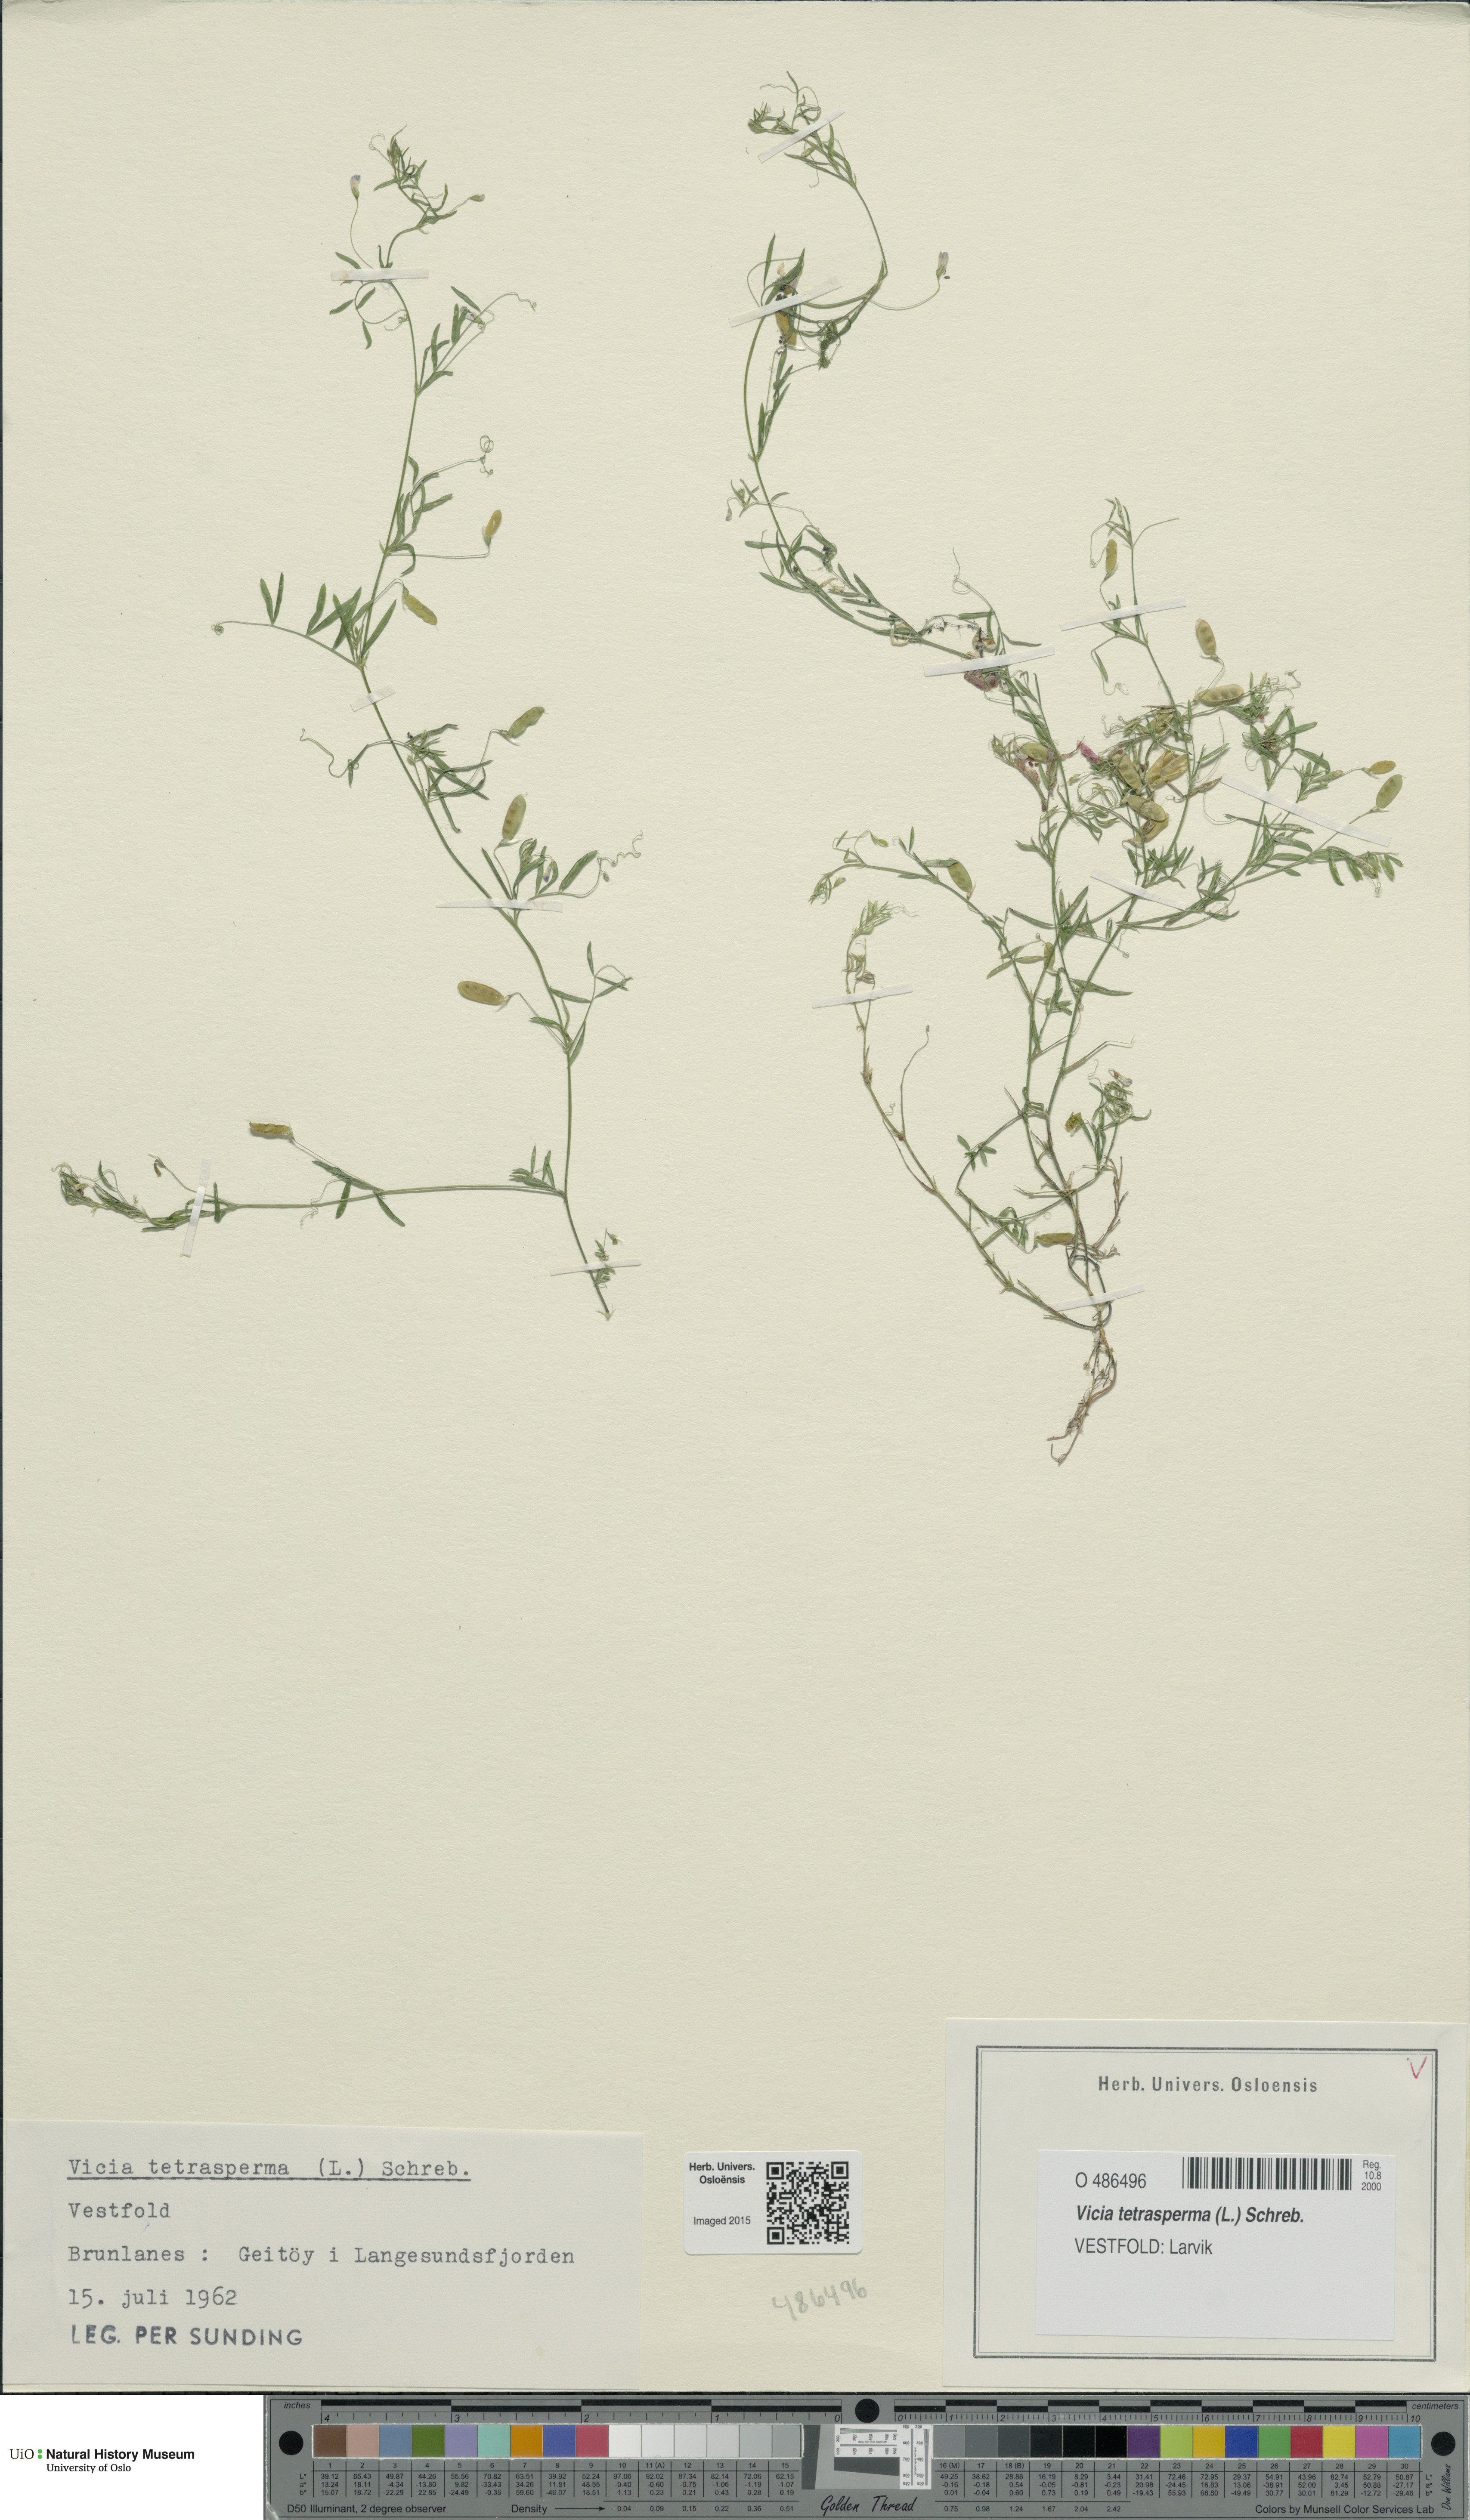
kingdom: Plantae
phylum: Tracheophyta
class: Magnoliopsida
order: Fabales
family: Fabaceae
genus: Vicia
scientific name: Vicia tetrasperma
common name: Smooth tare
